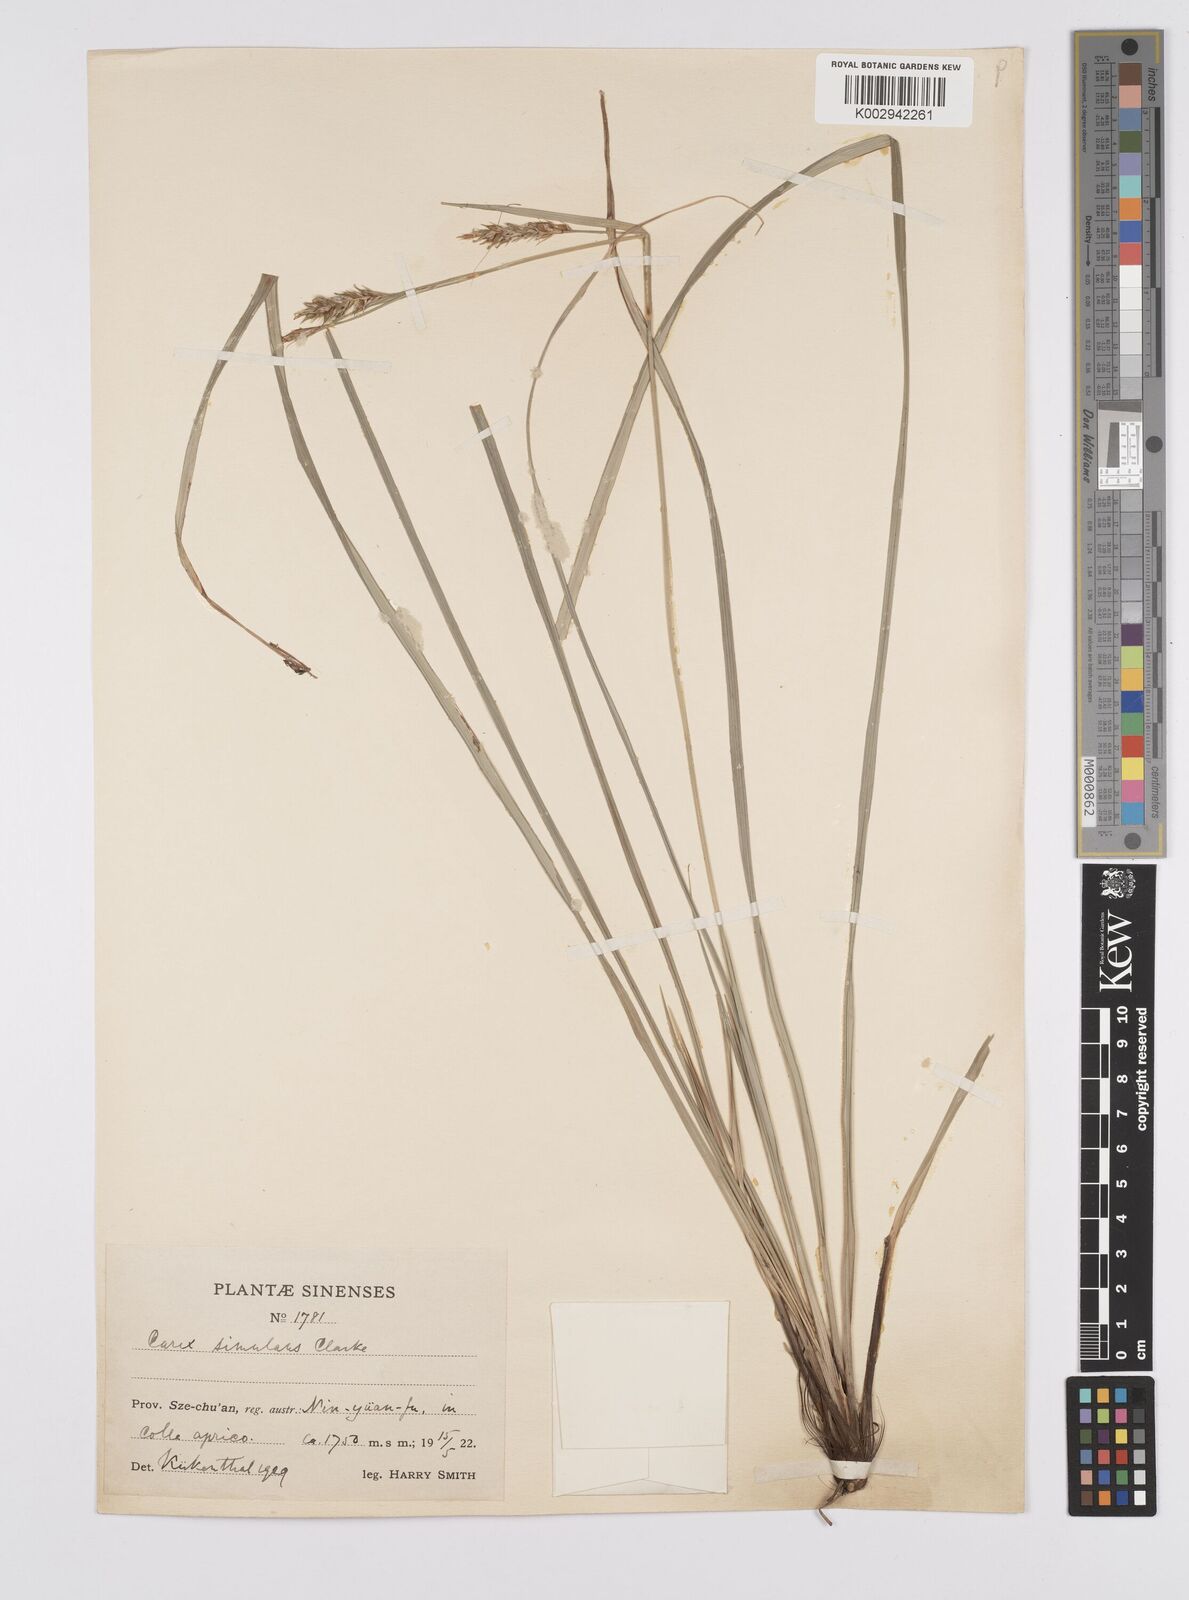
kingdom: Plantae
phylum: Tracheophyta
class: Liliopsida
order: Poales
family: Cyperaceae
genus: Carex
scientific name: Carex simulans
